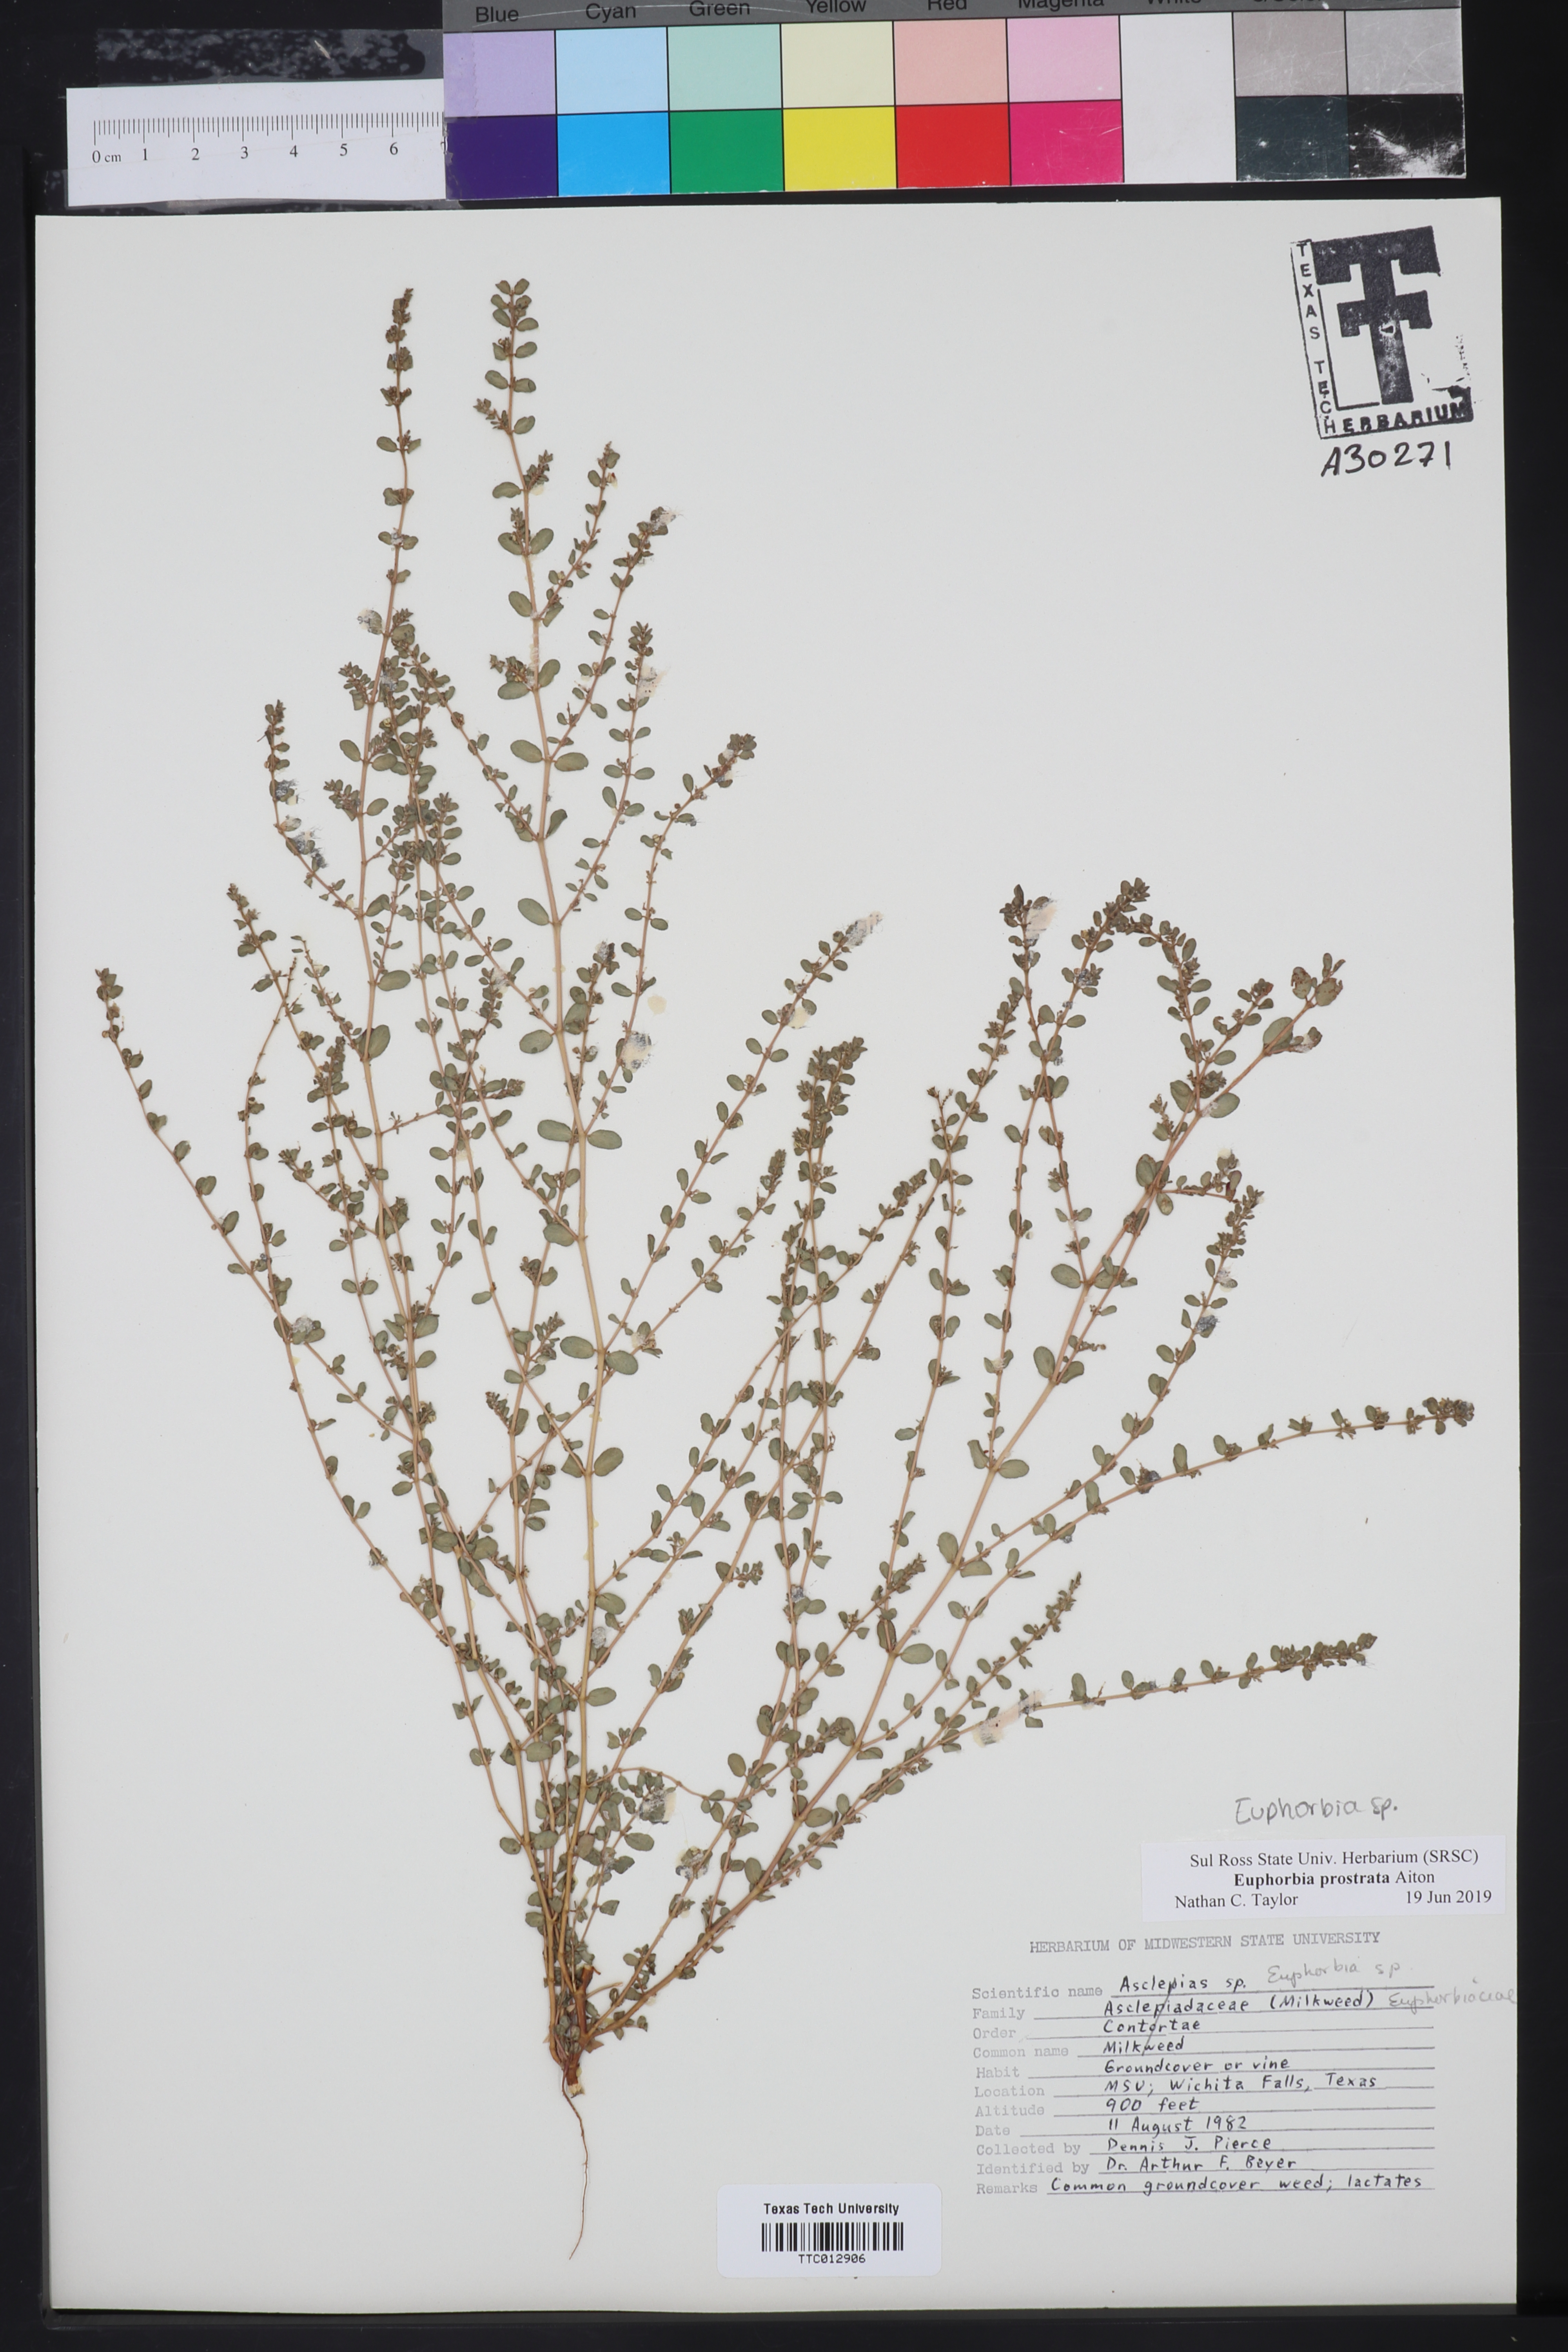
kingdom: Plantae
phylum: Tracheophyta
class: Magnoliopsida
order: Malpighiales
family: Euphorbiaceae
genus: Euphorbia
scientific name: Euphorbia prostrata
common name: Prostrate sandmat
